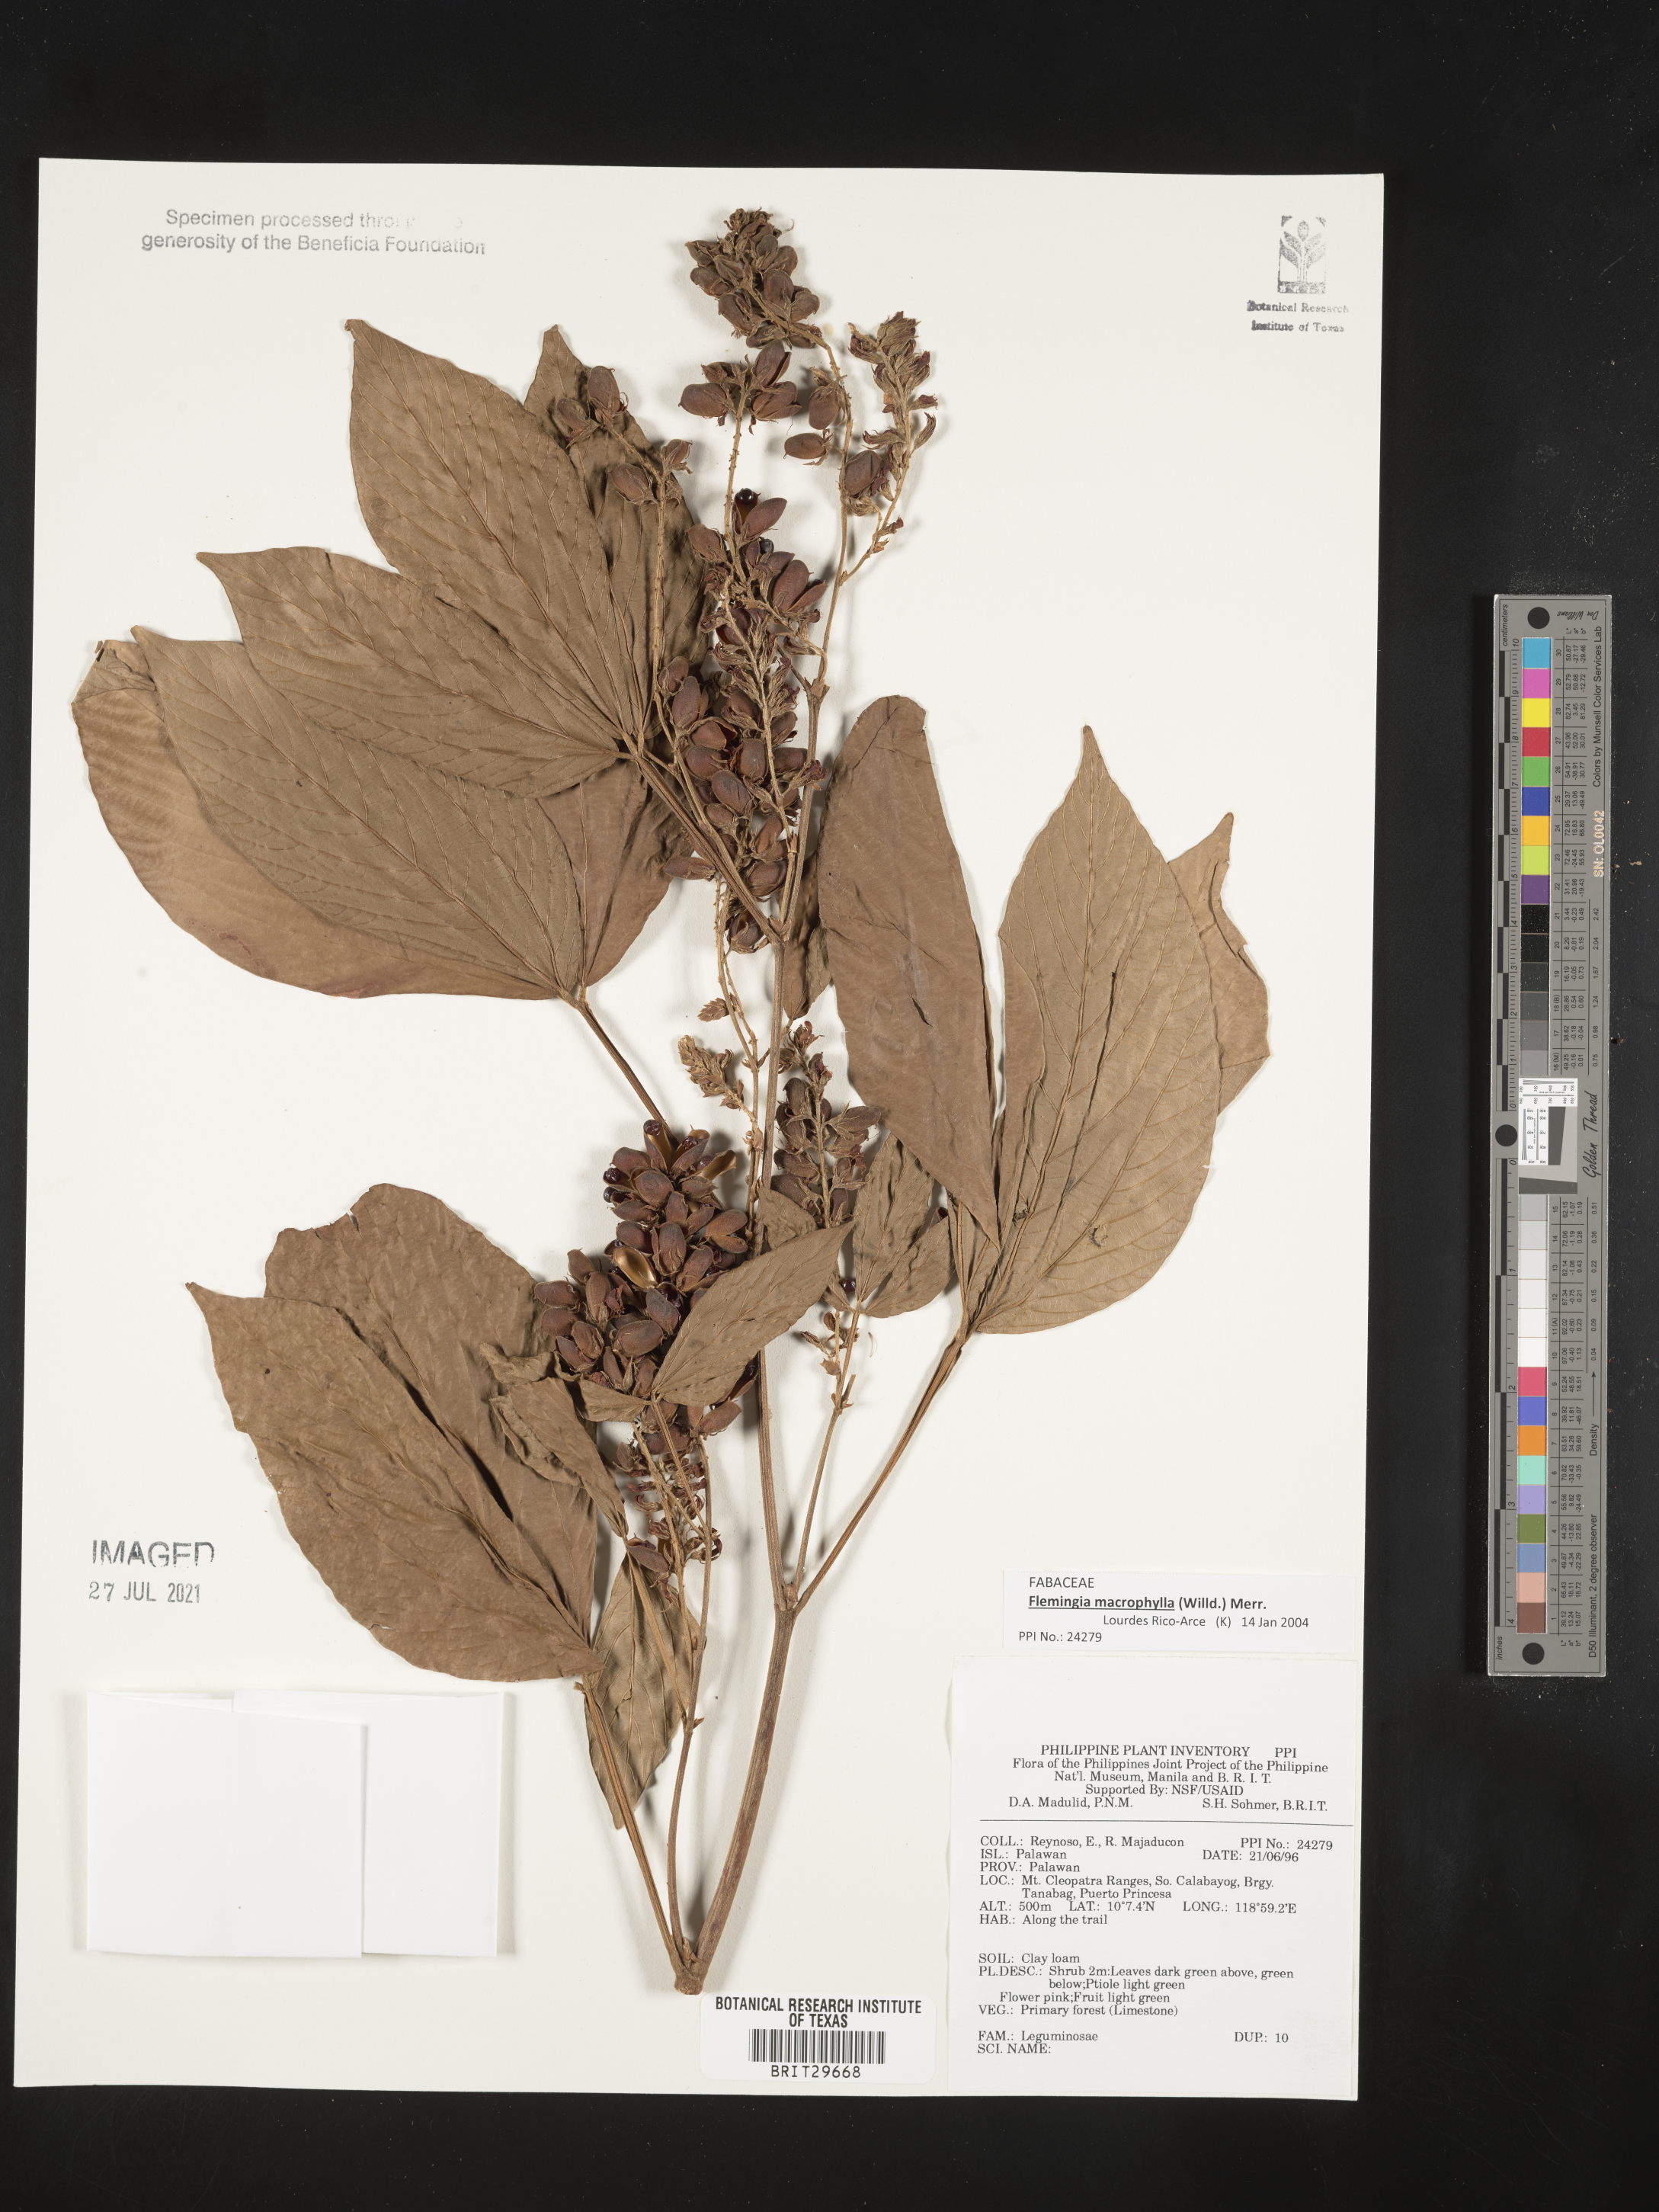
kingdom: Plantae
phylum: Tracheophyta
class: Magnoliopsida
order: Fabales
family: Fabaceae
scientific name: Fabaceae
